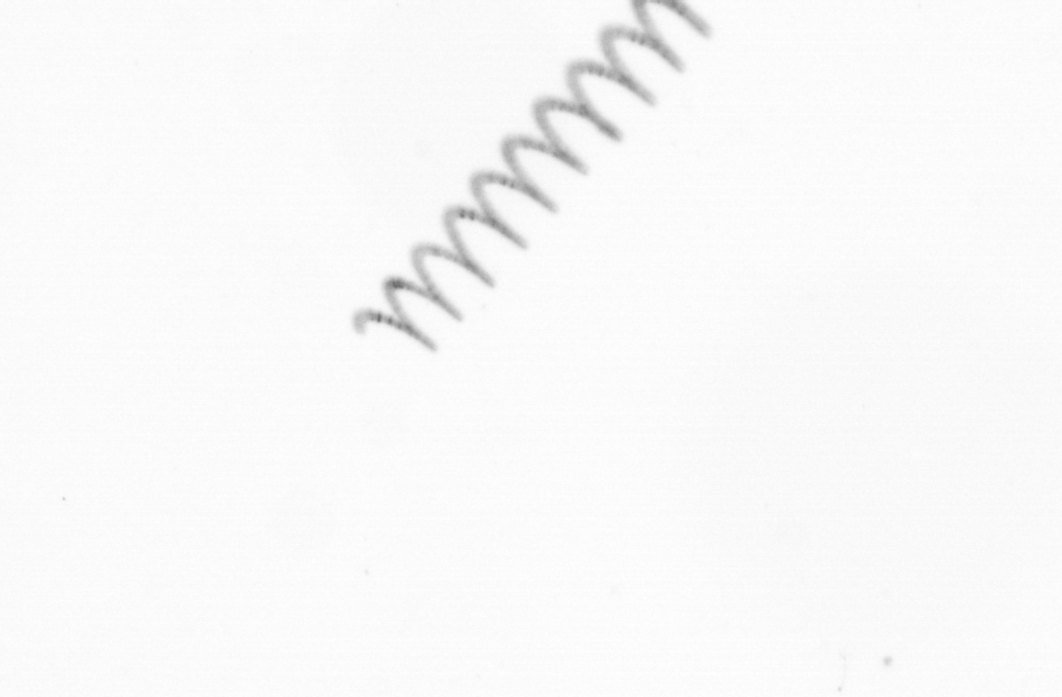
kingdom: Chromista
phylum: Ochrophyta
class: Bacillariophyceae
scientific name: Bacillariophyceae
